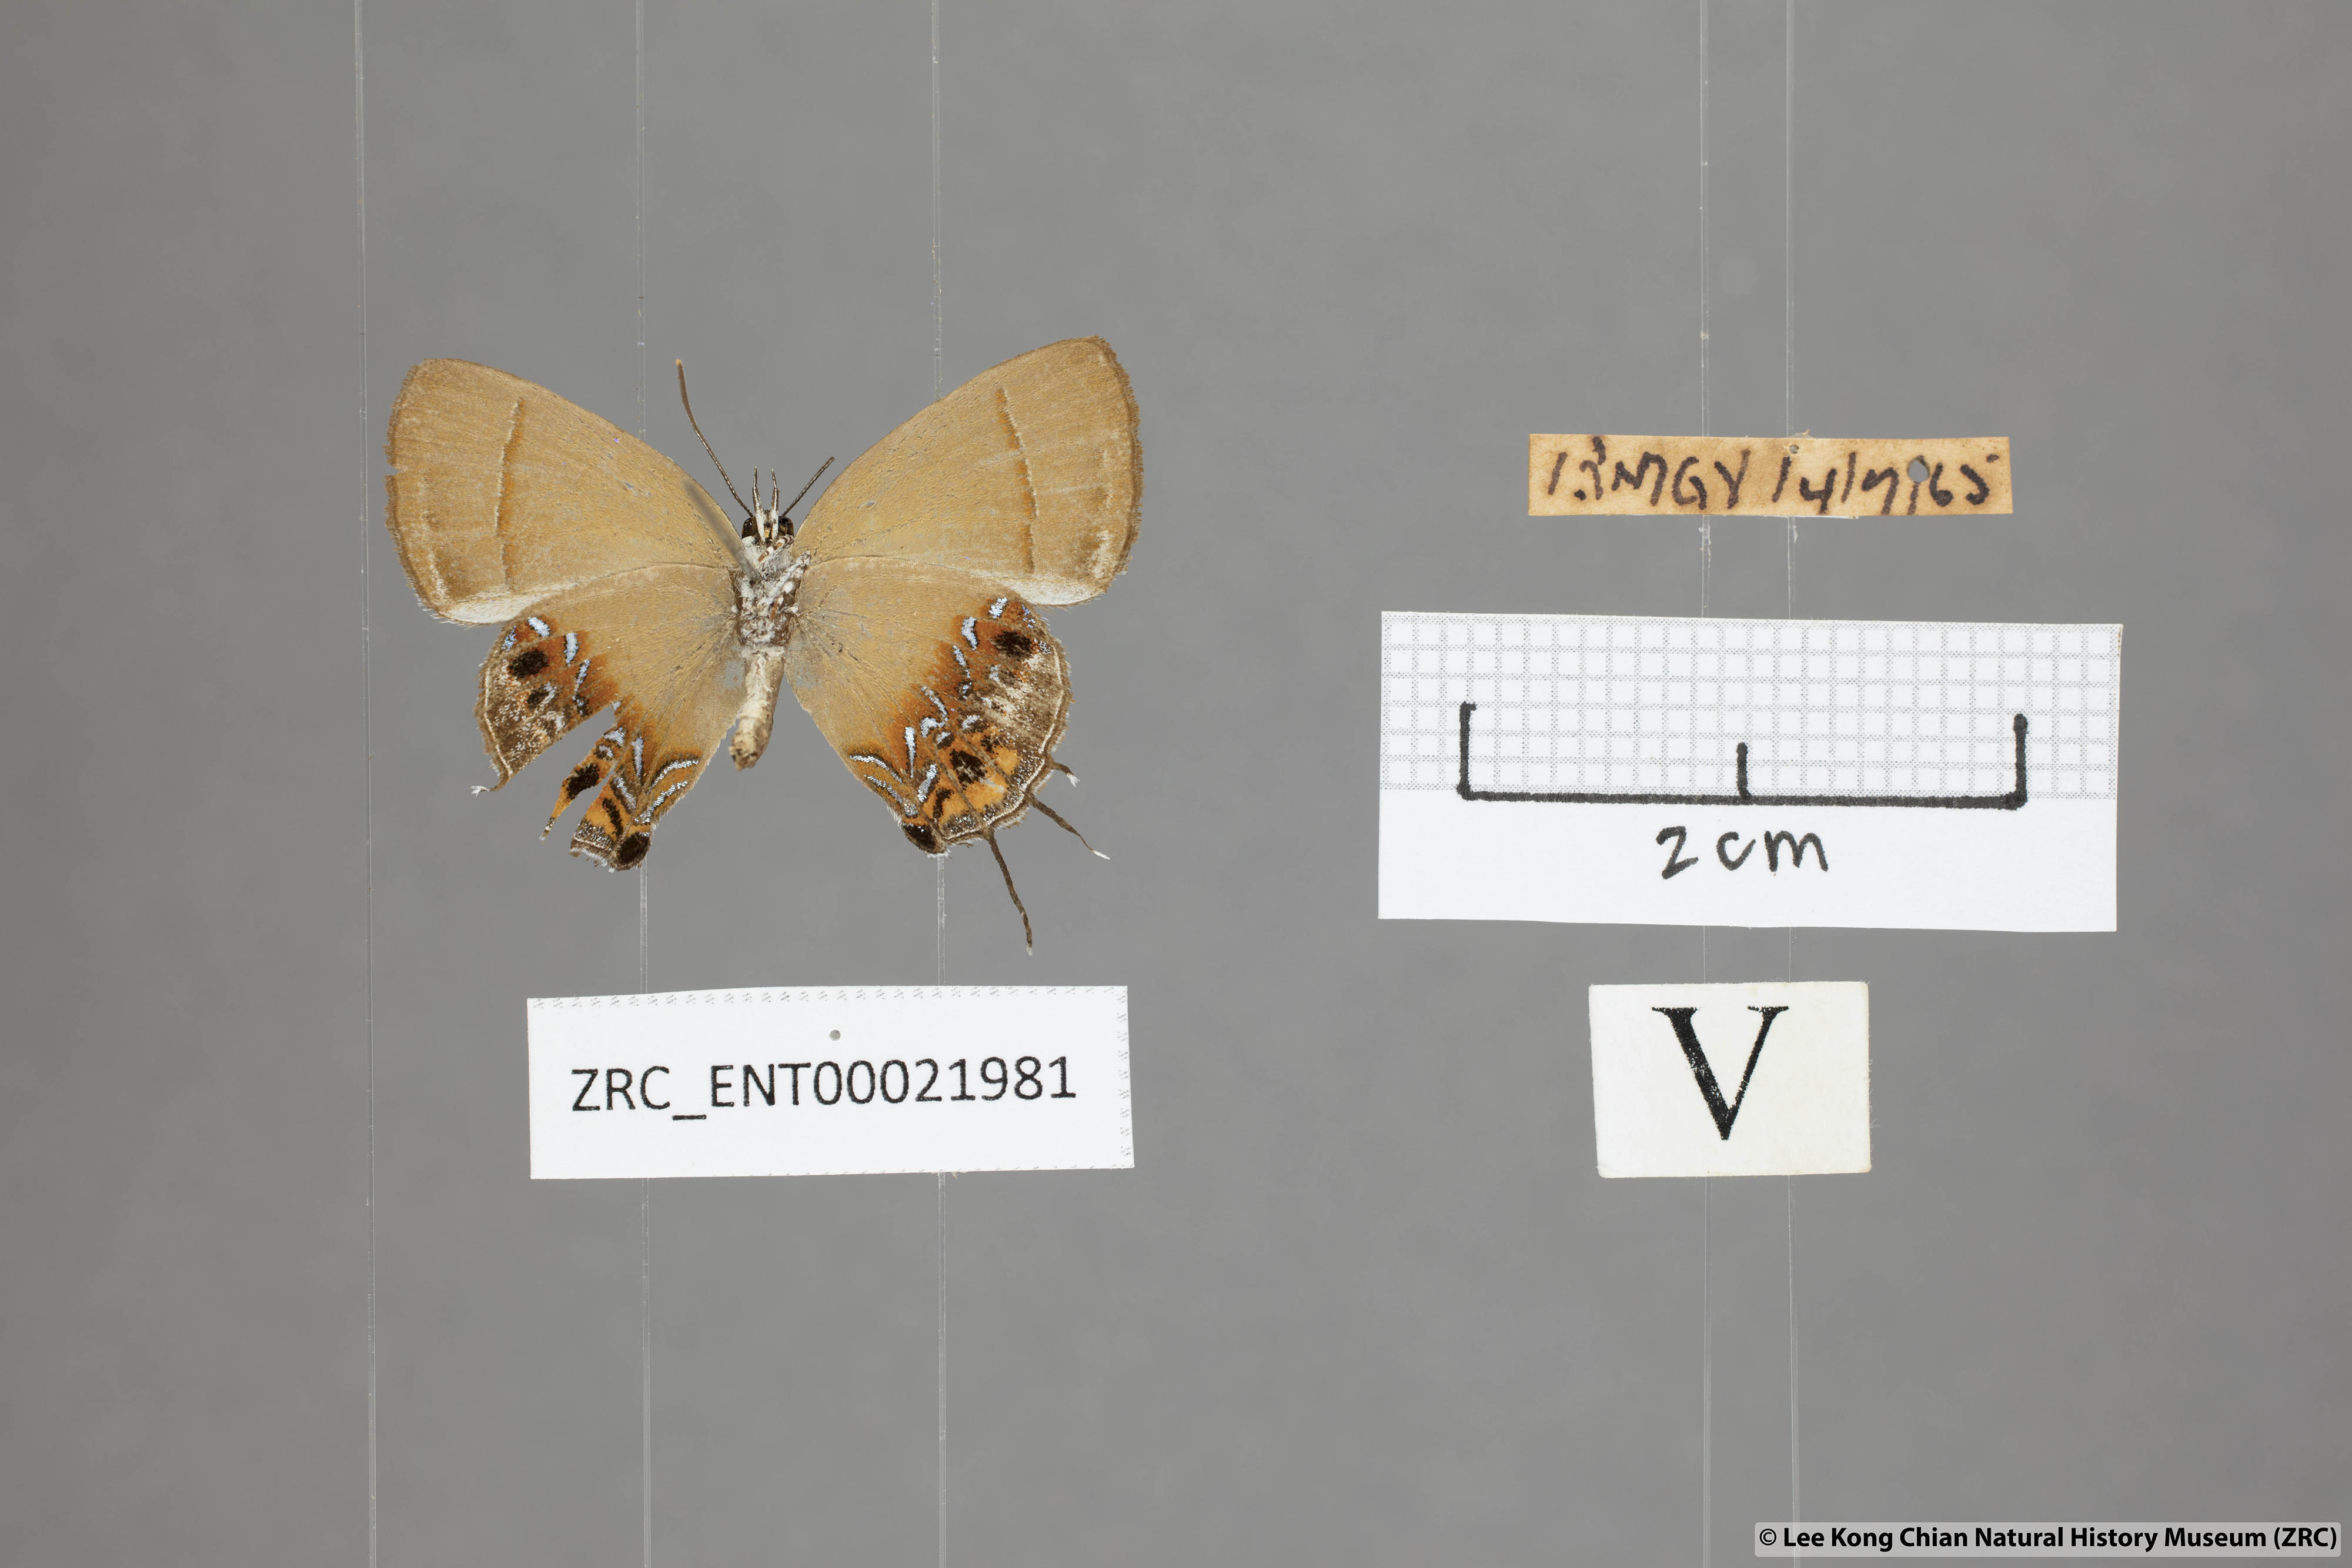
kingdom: Animalia
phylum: Arthropoda
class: Insecta
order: Lepidoptera
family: Lycaenidae
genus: Semanga
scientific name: Semanga superba
